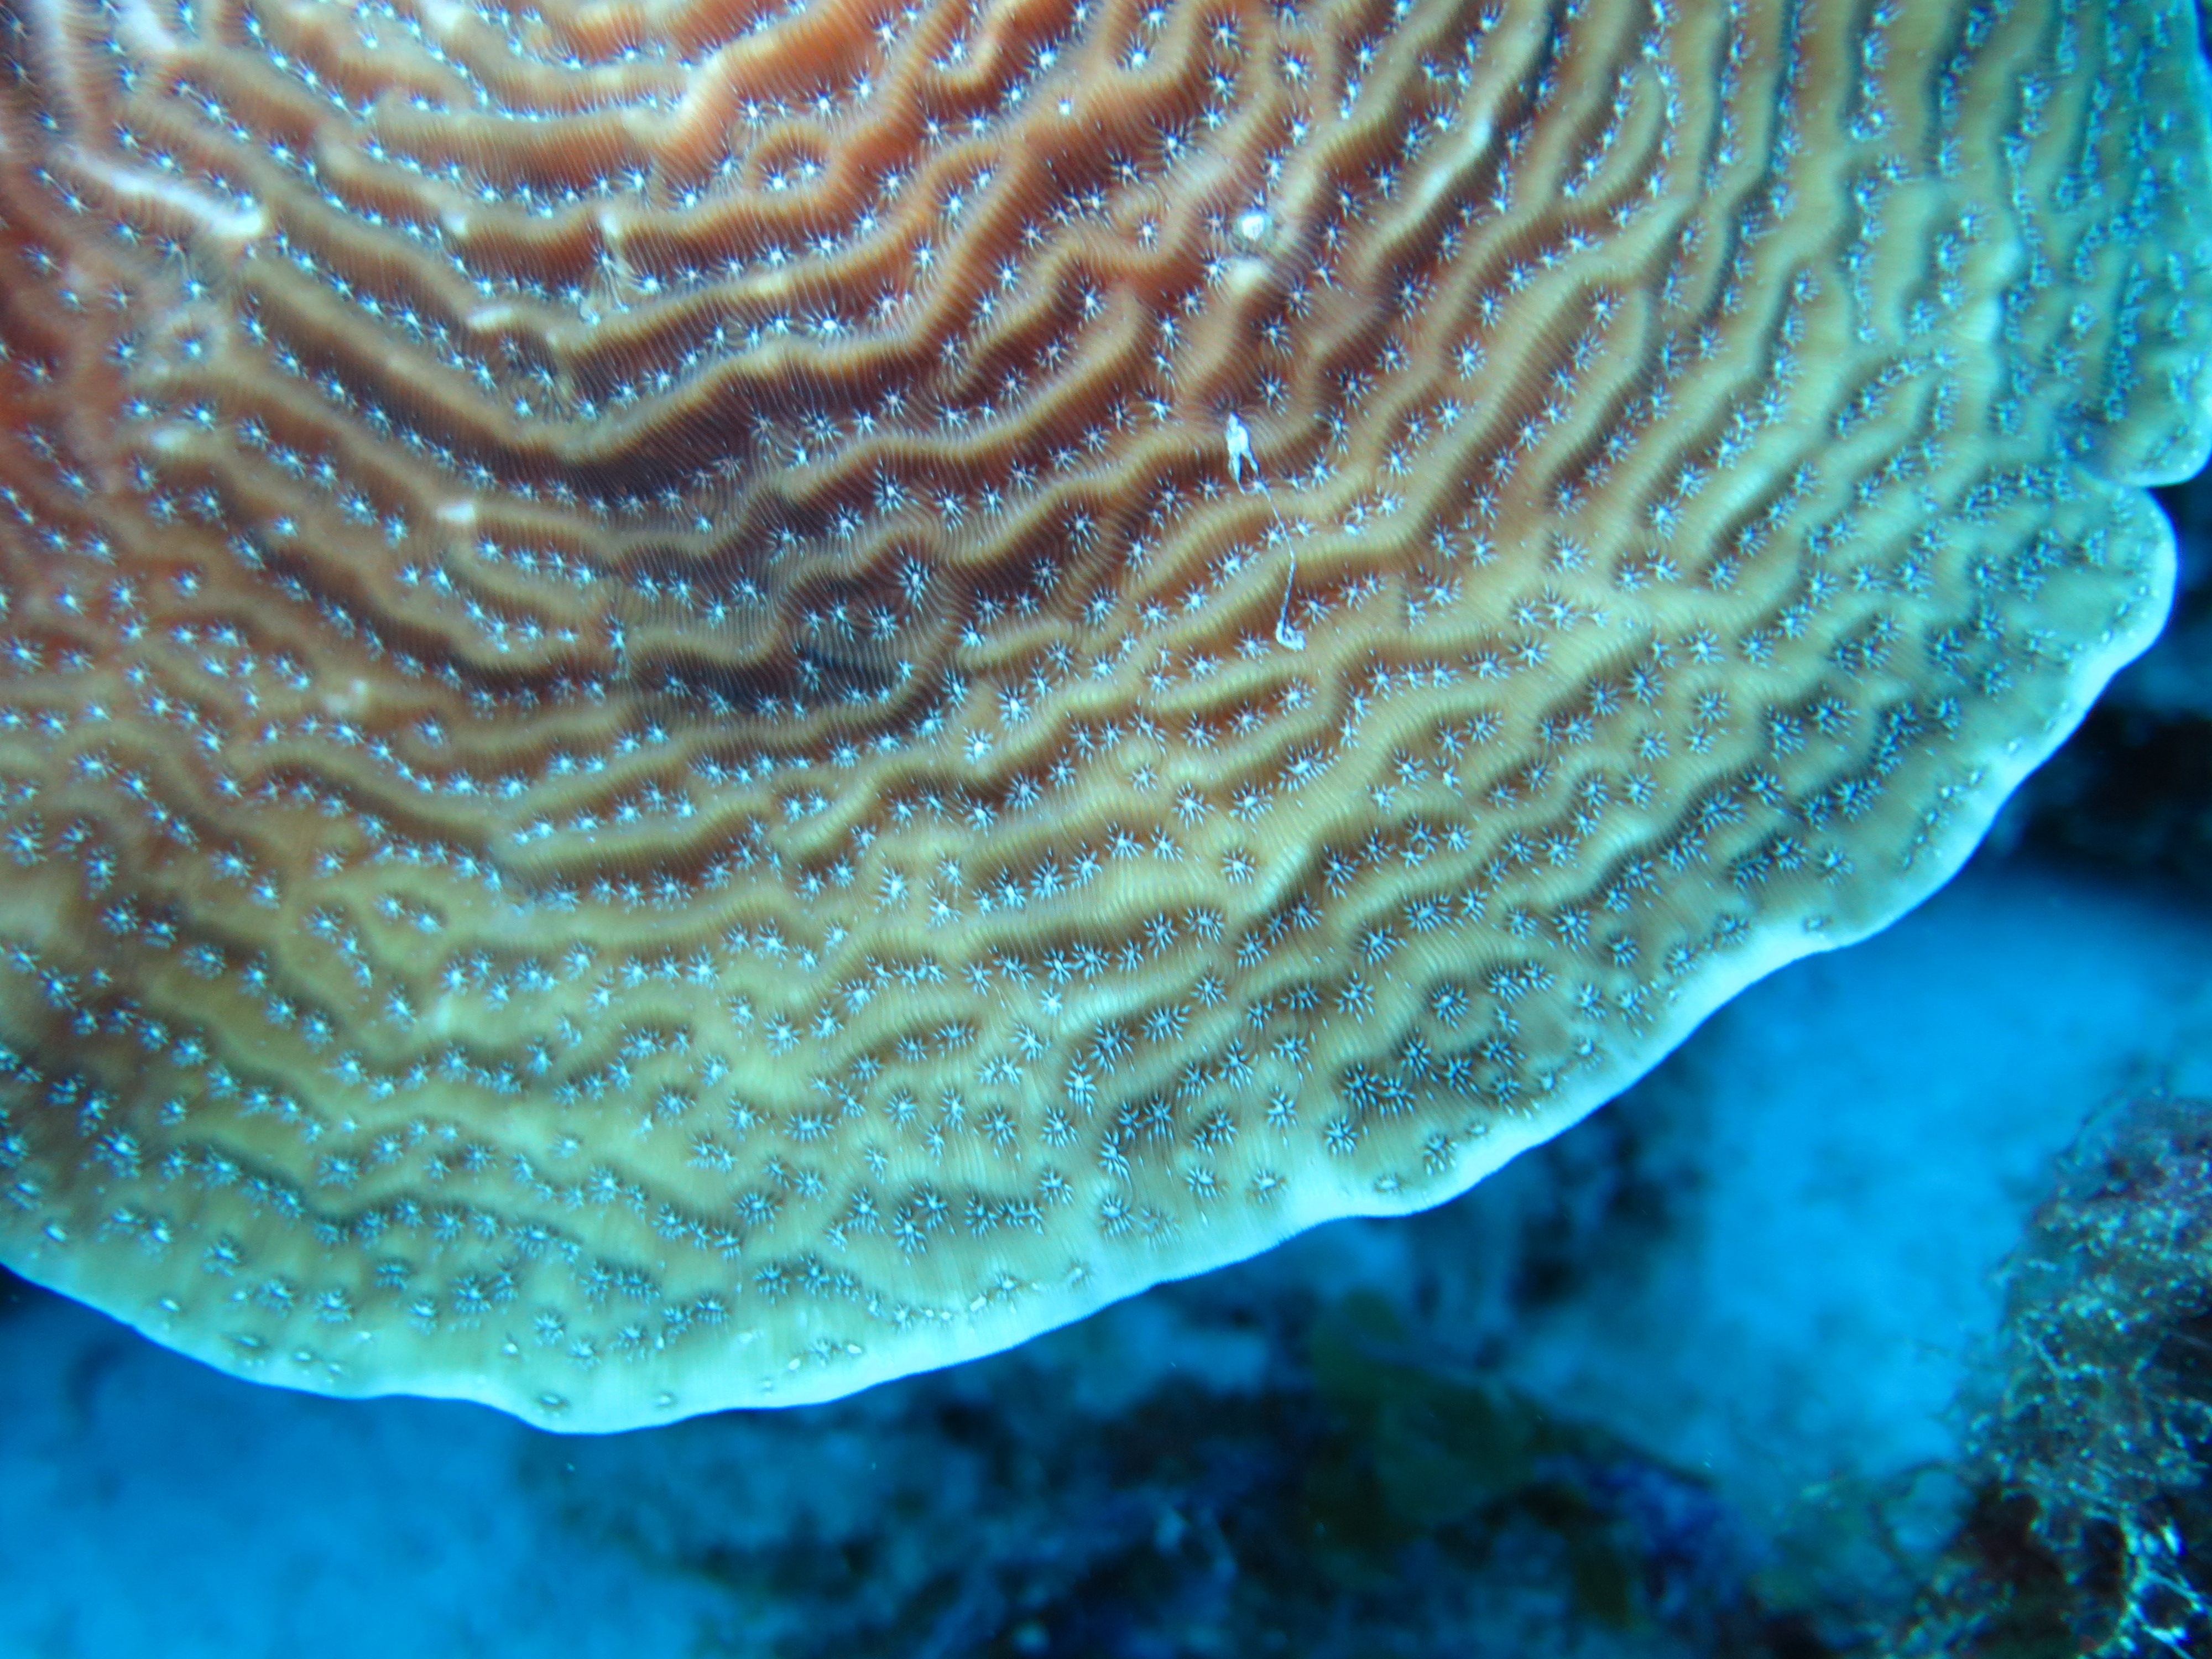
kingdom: Animalia
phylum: Cnidaria
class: Anthozoa
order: Scleractinia
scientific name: Scleractinia
